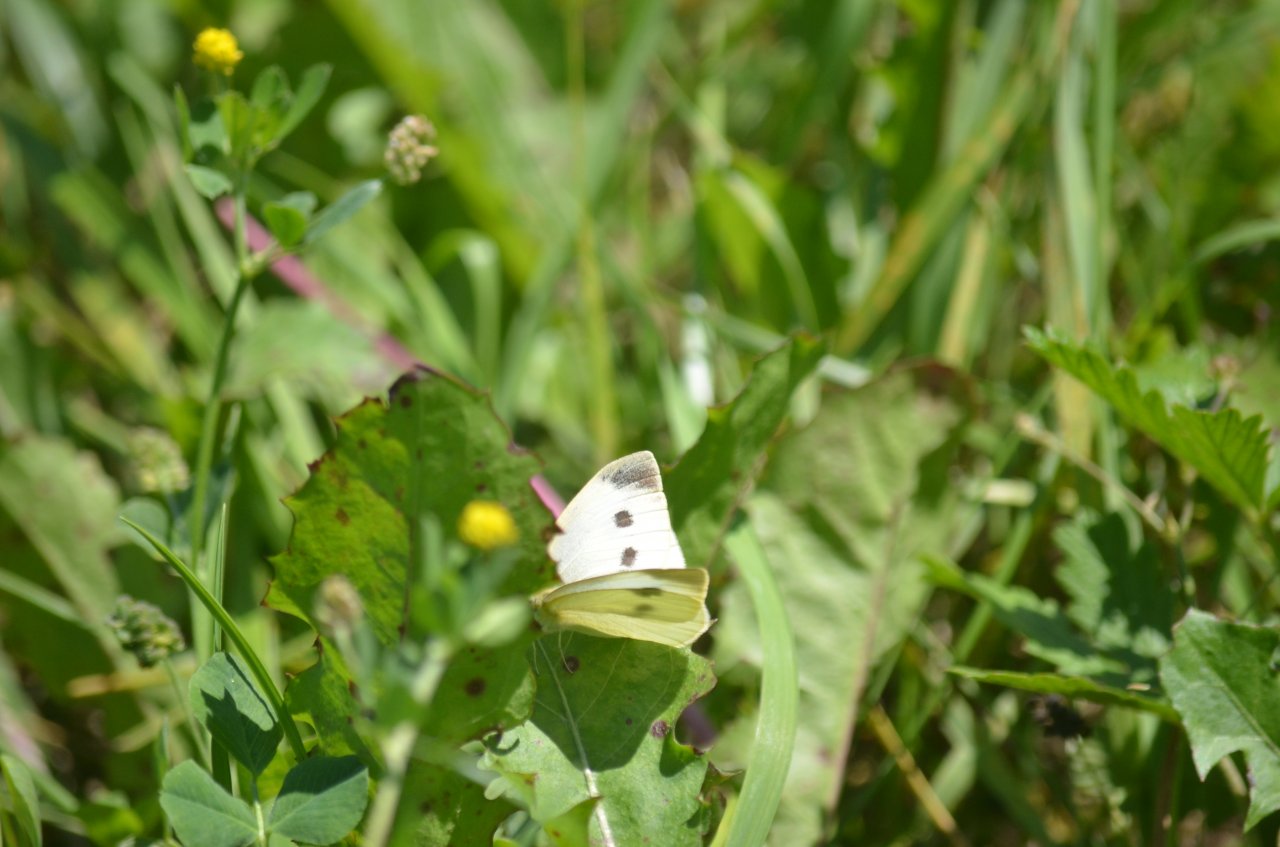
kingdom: Animalia
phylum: Arthropoda
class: Insecta
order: Lepidoptera
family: Pieridae
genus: Pieris
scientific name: Pieris rapae
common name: Cabbage White
